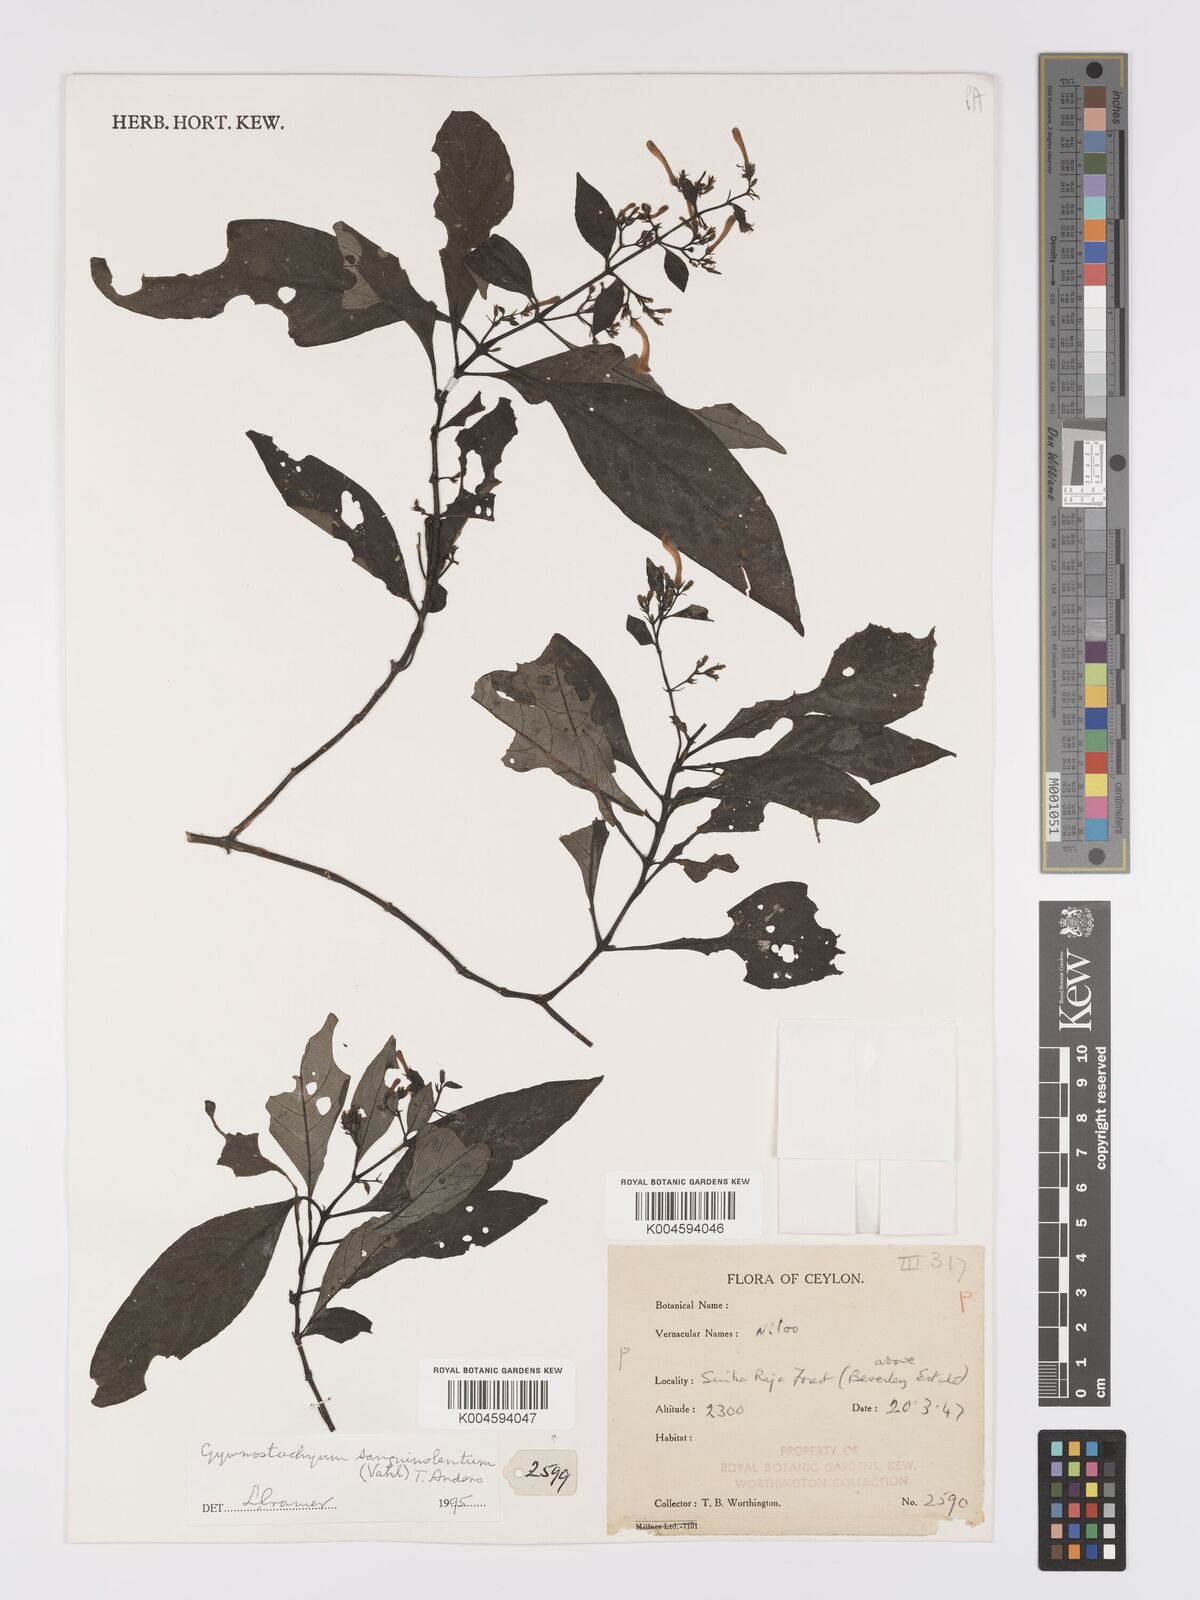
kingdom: Plantae
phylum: Tracheophyta
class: Magnoliopsida
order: Lamiales
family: Acanthaceae
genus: Gymnostachyum
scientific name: Gymnostachyum sanguinolentum
